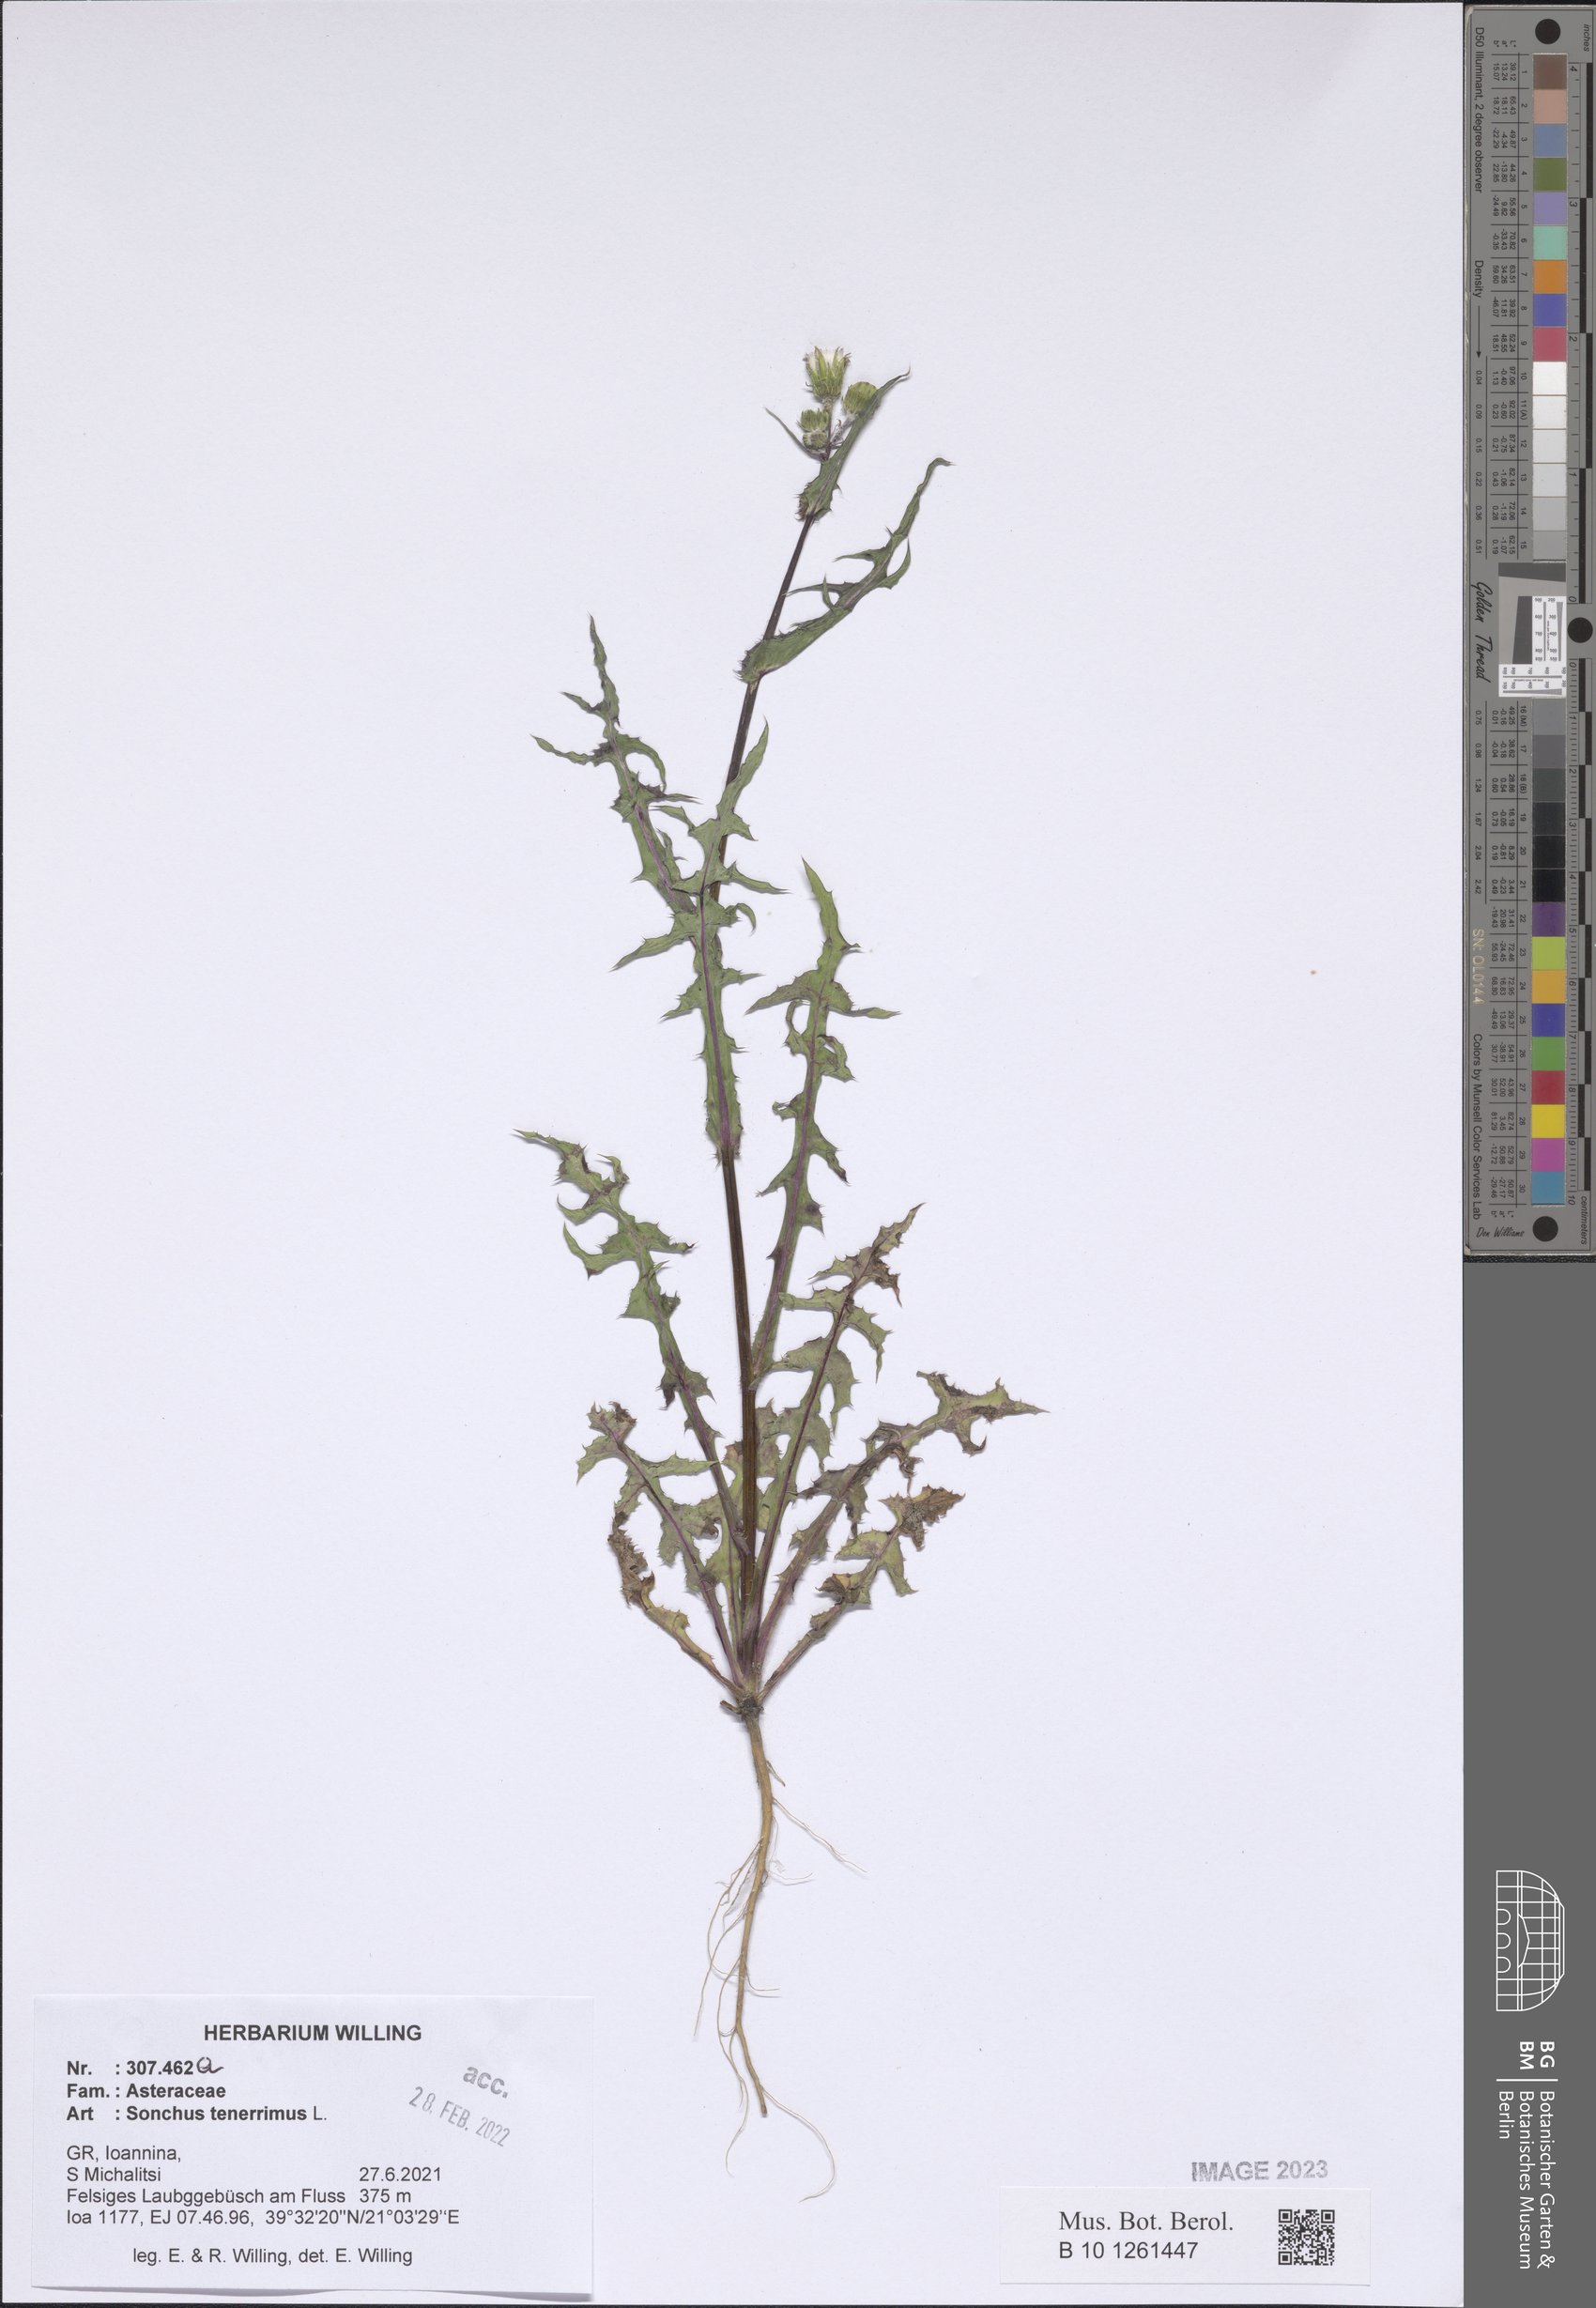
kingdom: Plantae
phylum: Tracheophyta
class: Magnoliopsida
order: Asterales
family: Asteraceae
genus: Sonchus
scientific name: Sonchus tenerrimus
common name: Clammy sowthistle
